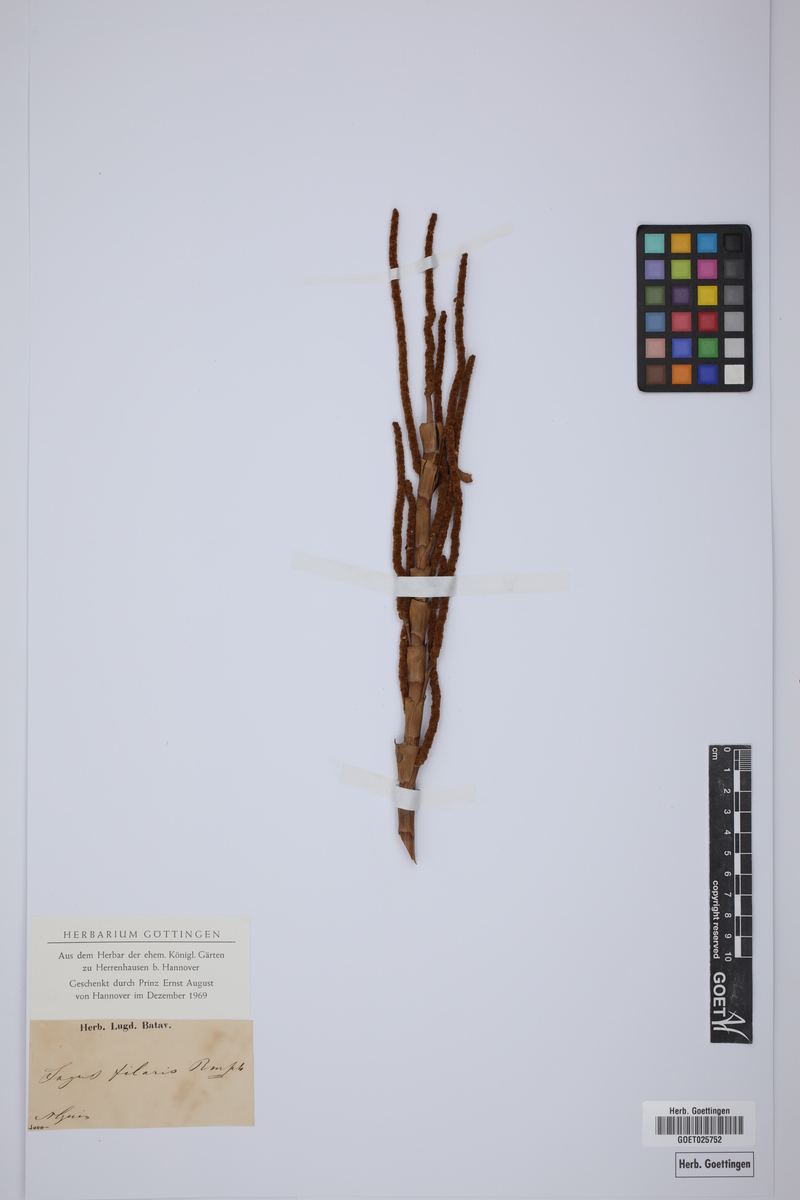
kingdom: Plantae
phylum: Tracheophyta
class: Liliopsida
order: Arecales
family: Arecaceae
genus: Pigafetta
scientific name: Pigafetta filaris
